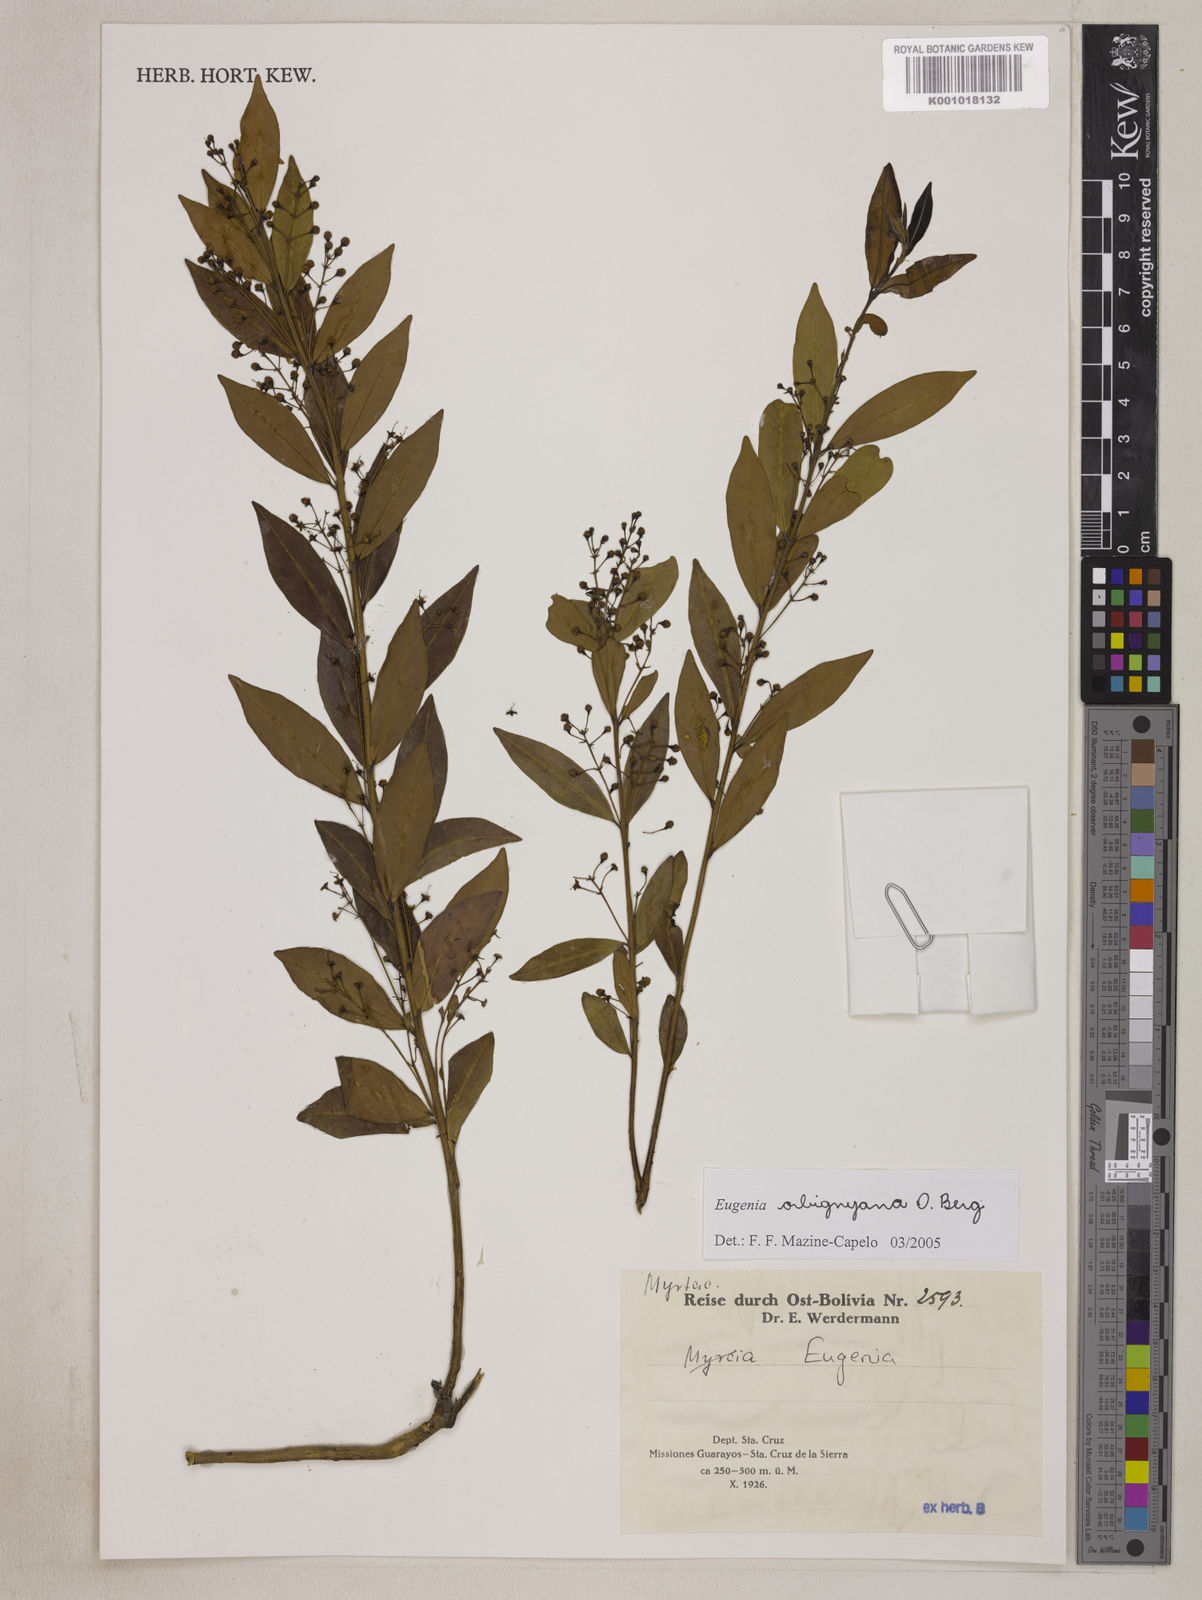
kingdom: Plantae
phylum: Tracheophyta
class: Magnoliopsida
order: Myrtales
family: Myrtaceae
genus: Eugenia
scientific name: Eugenia orbignyana
